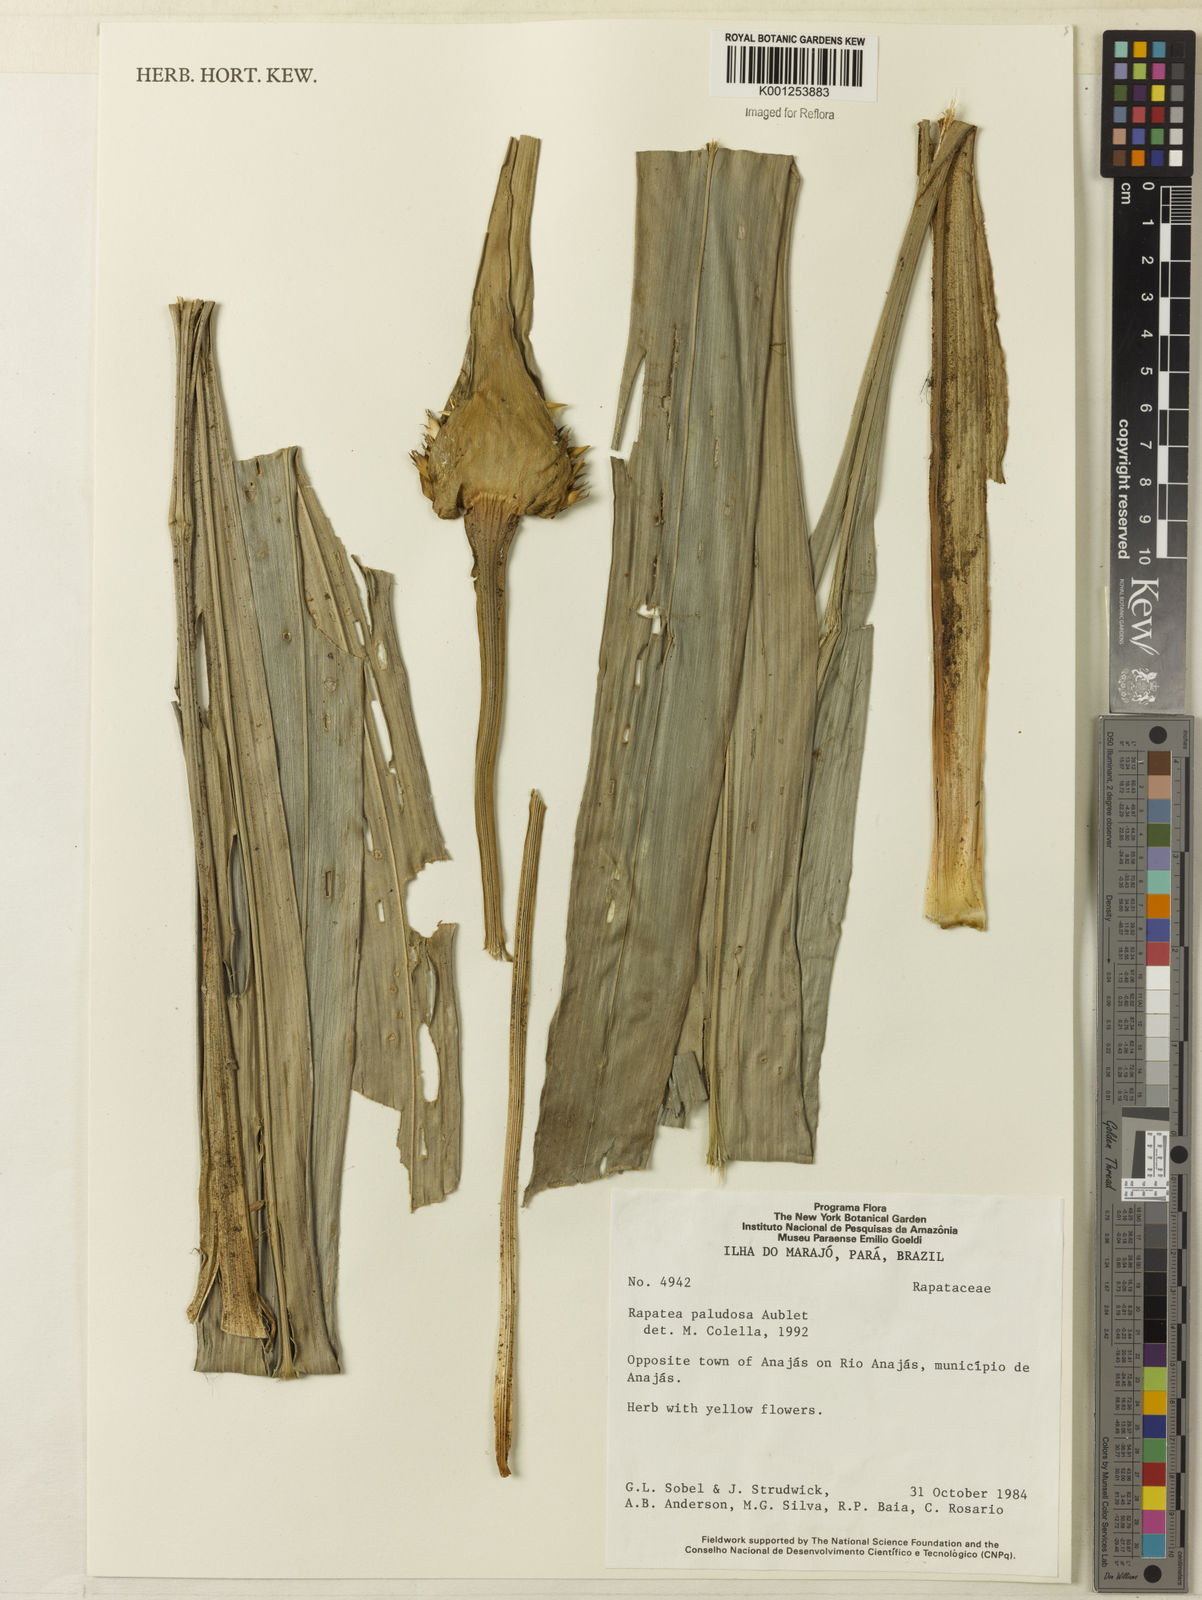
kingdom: Plantae
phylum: Tracheophyta
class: Liliopsida
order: Poales
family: Rapateaceae
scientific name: Rapateaceae
